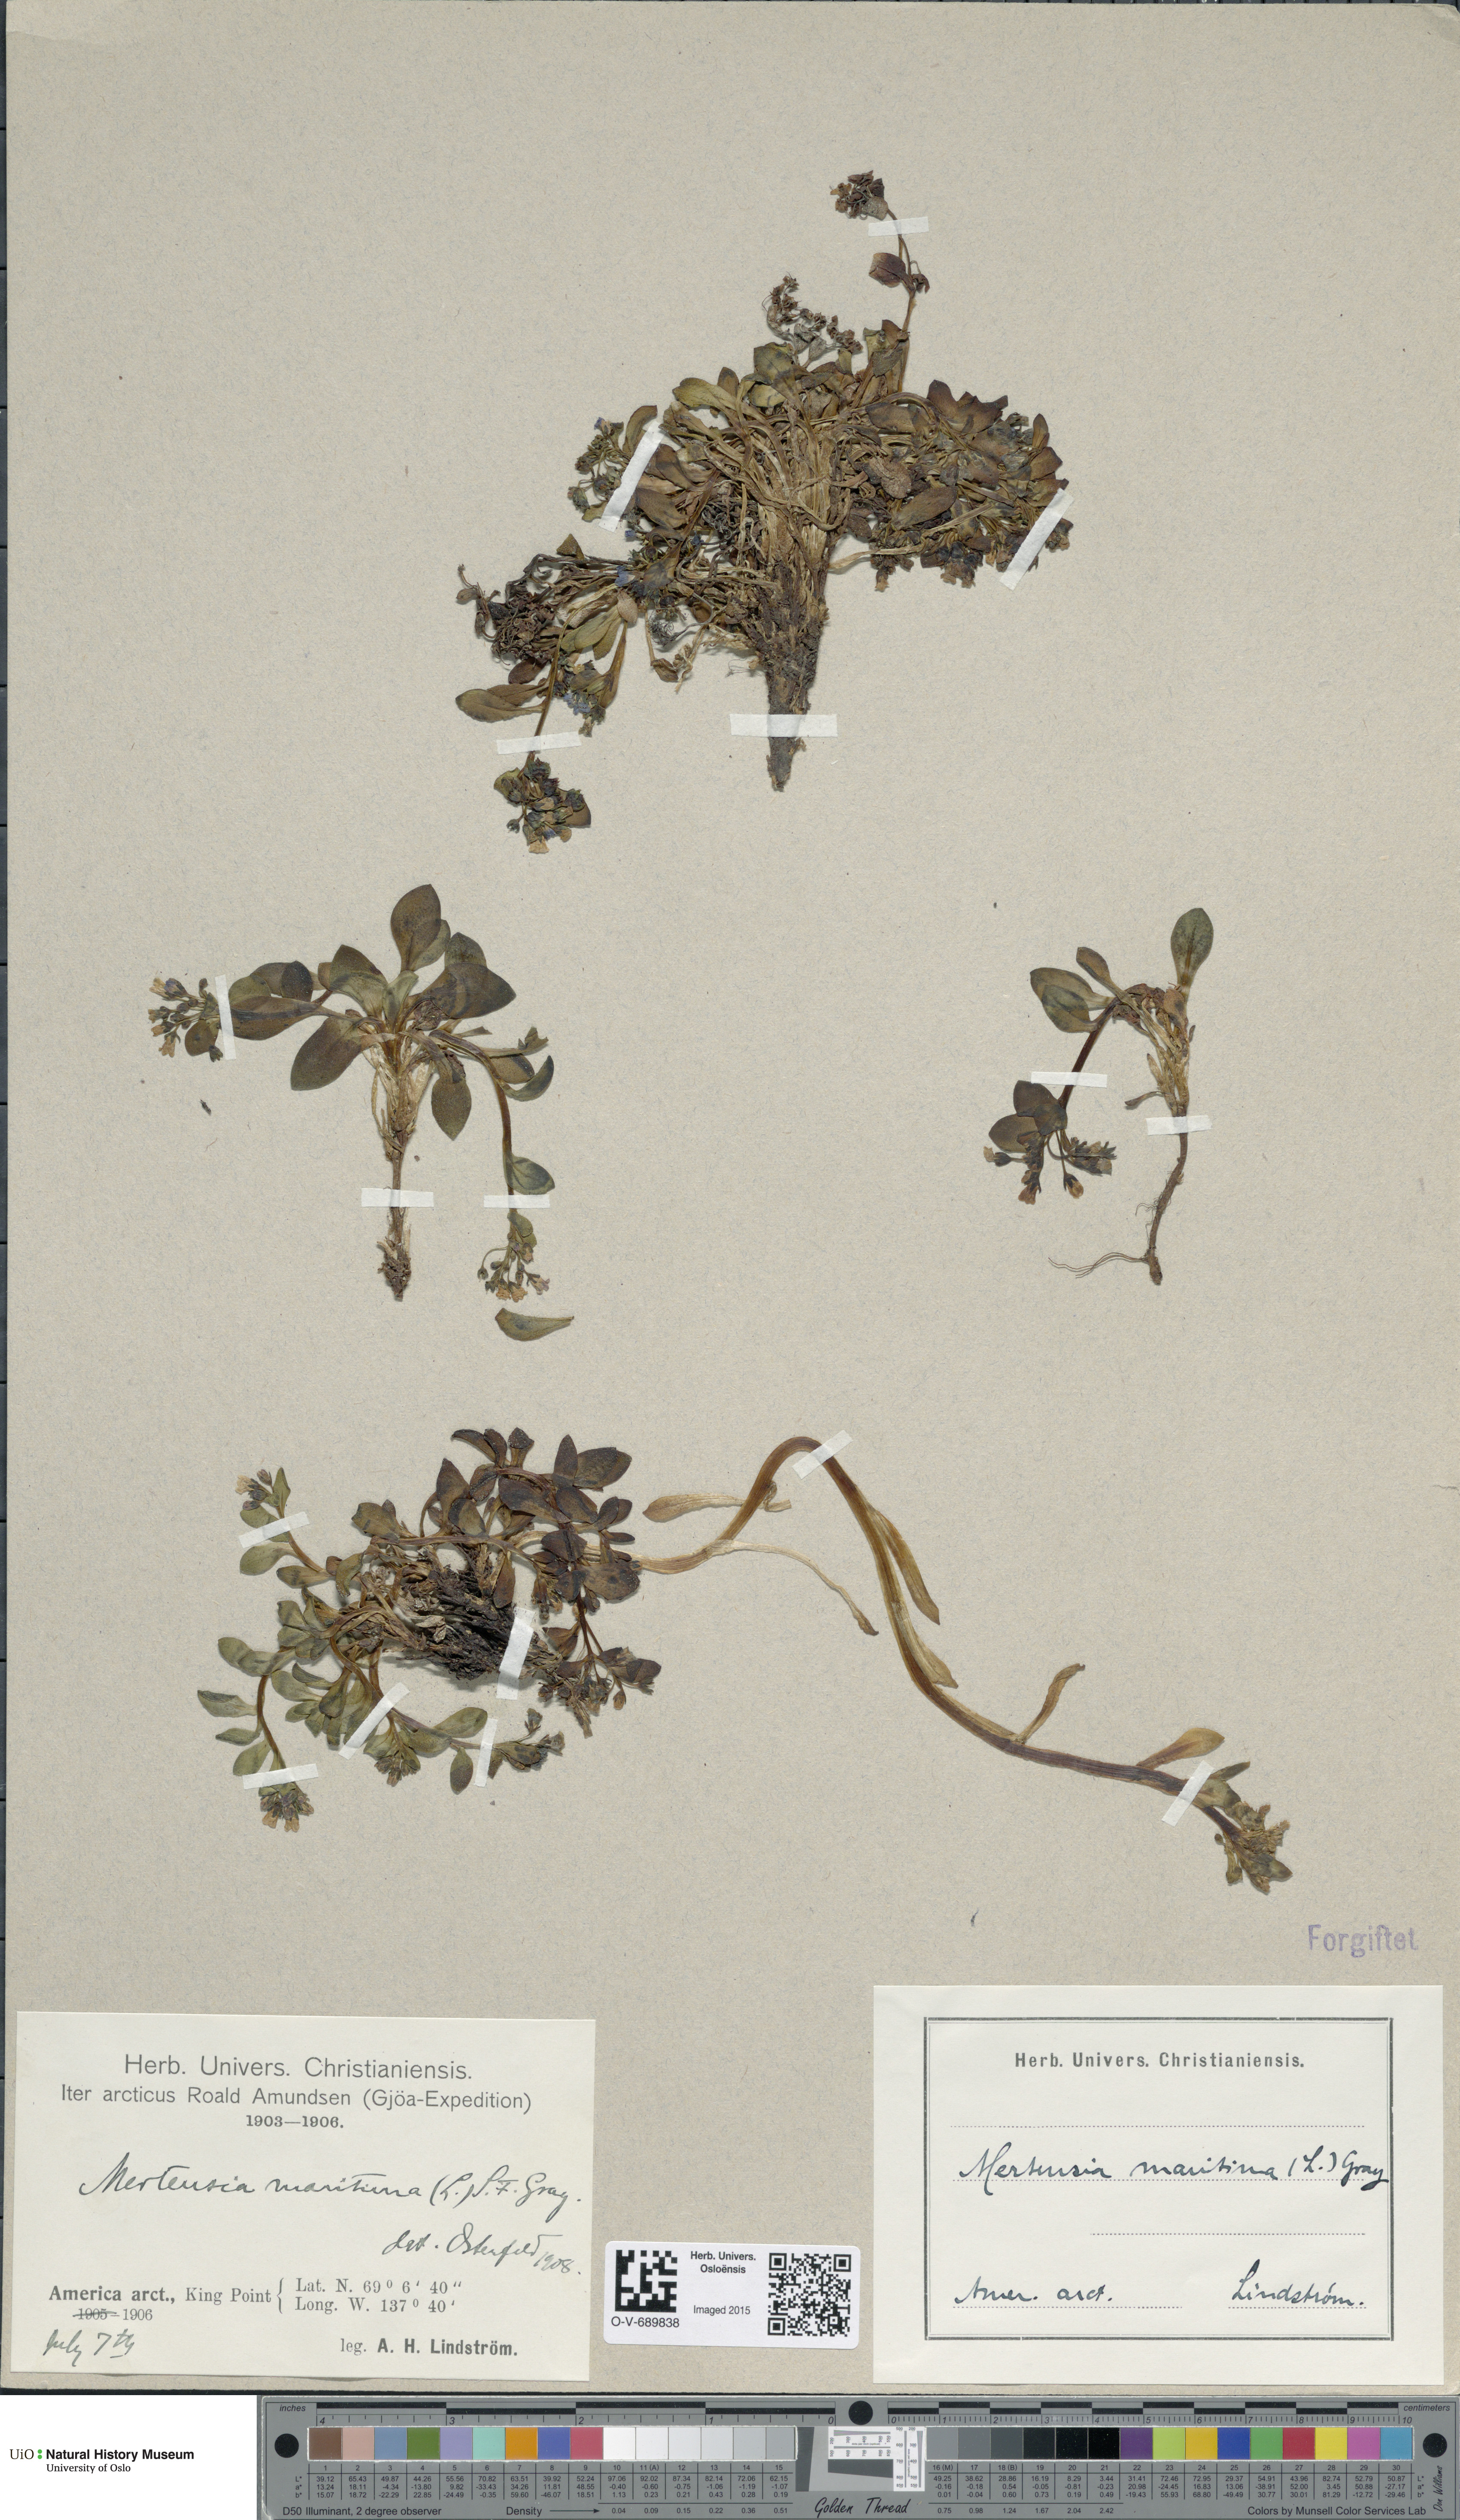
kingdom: Plantae
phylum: Tracheophyta
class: Magnoliopsida
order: Boraginales
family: Boraginaceae
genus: Mertensia
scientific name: Mertensia maritima
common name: Oysterplant
